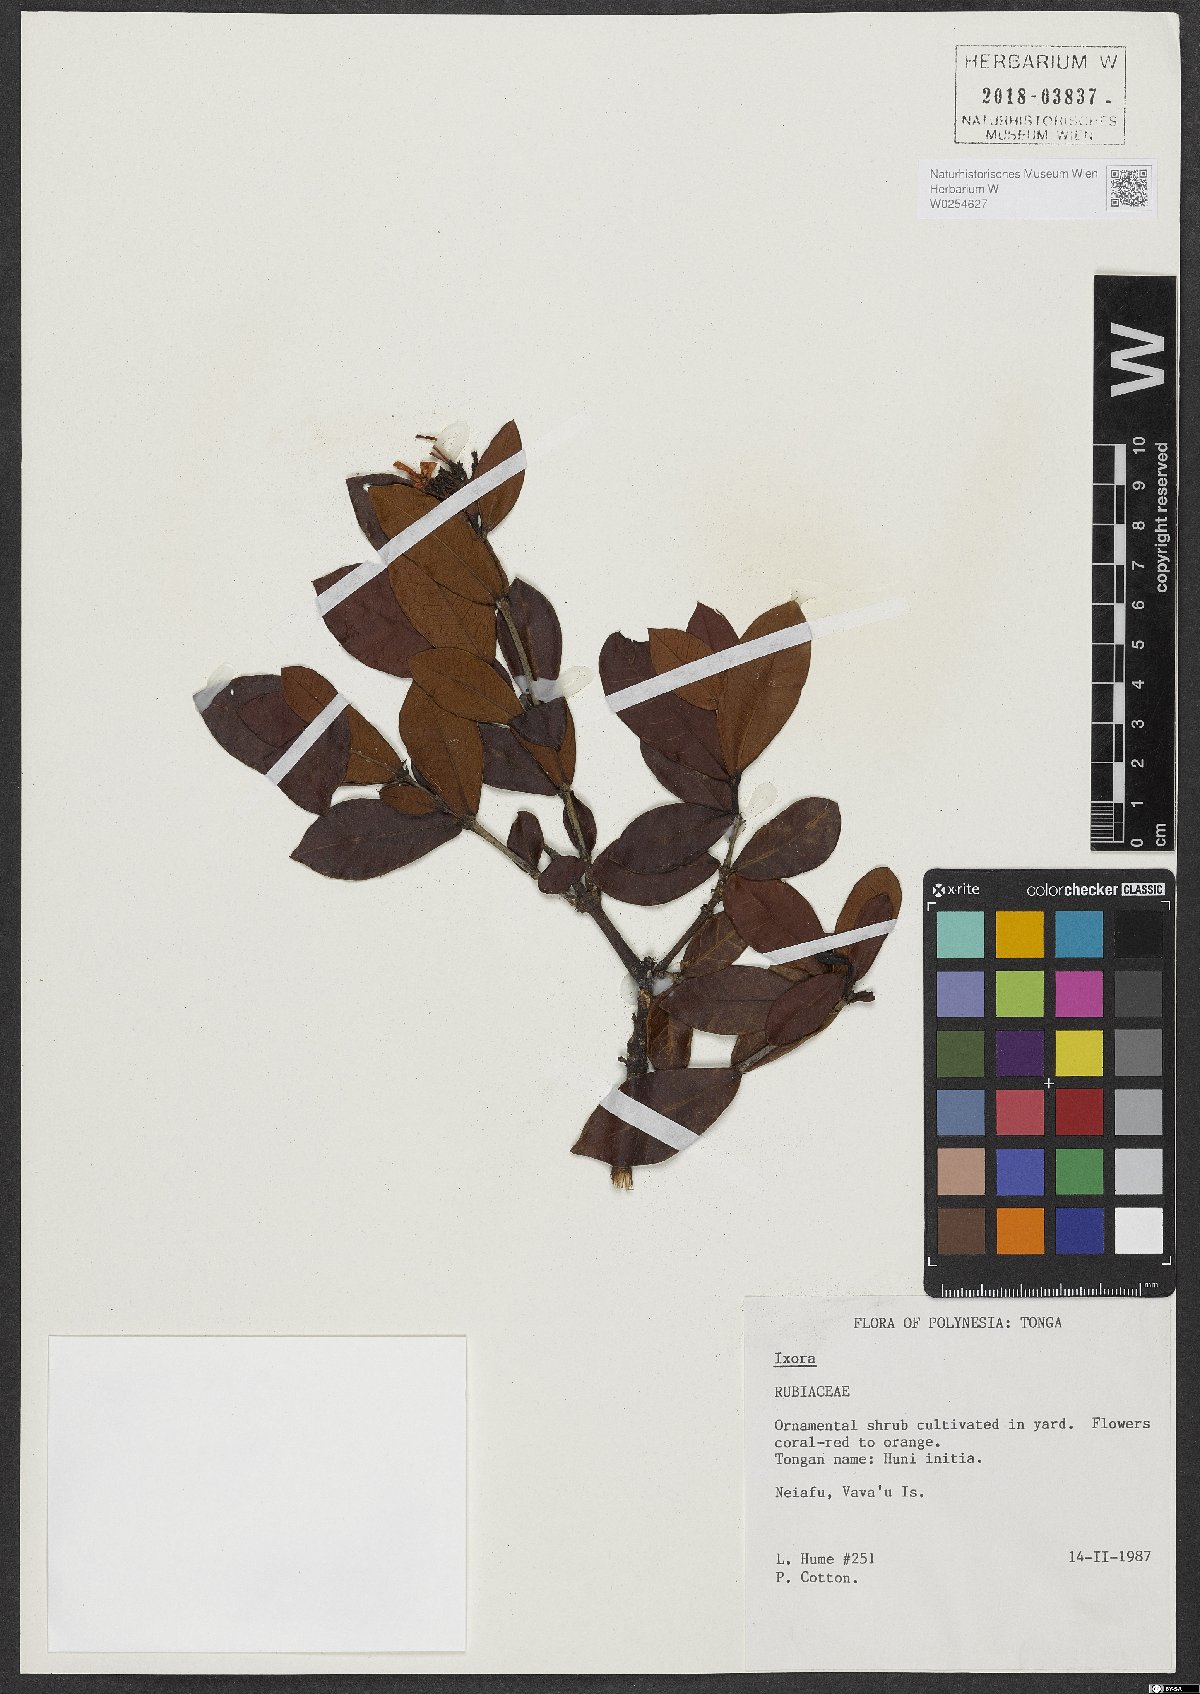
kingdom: Plantae
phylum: Tracheophyta
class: Magnoliopsida
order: Gentianales
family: Rubiaceae
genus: Ixora
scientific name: Ixora
